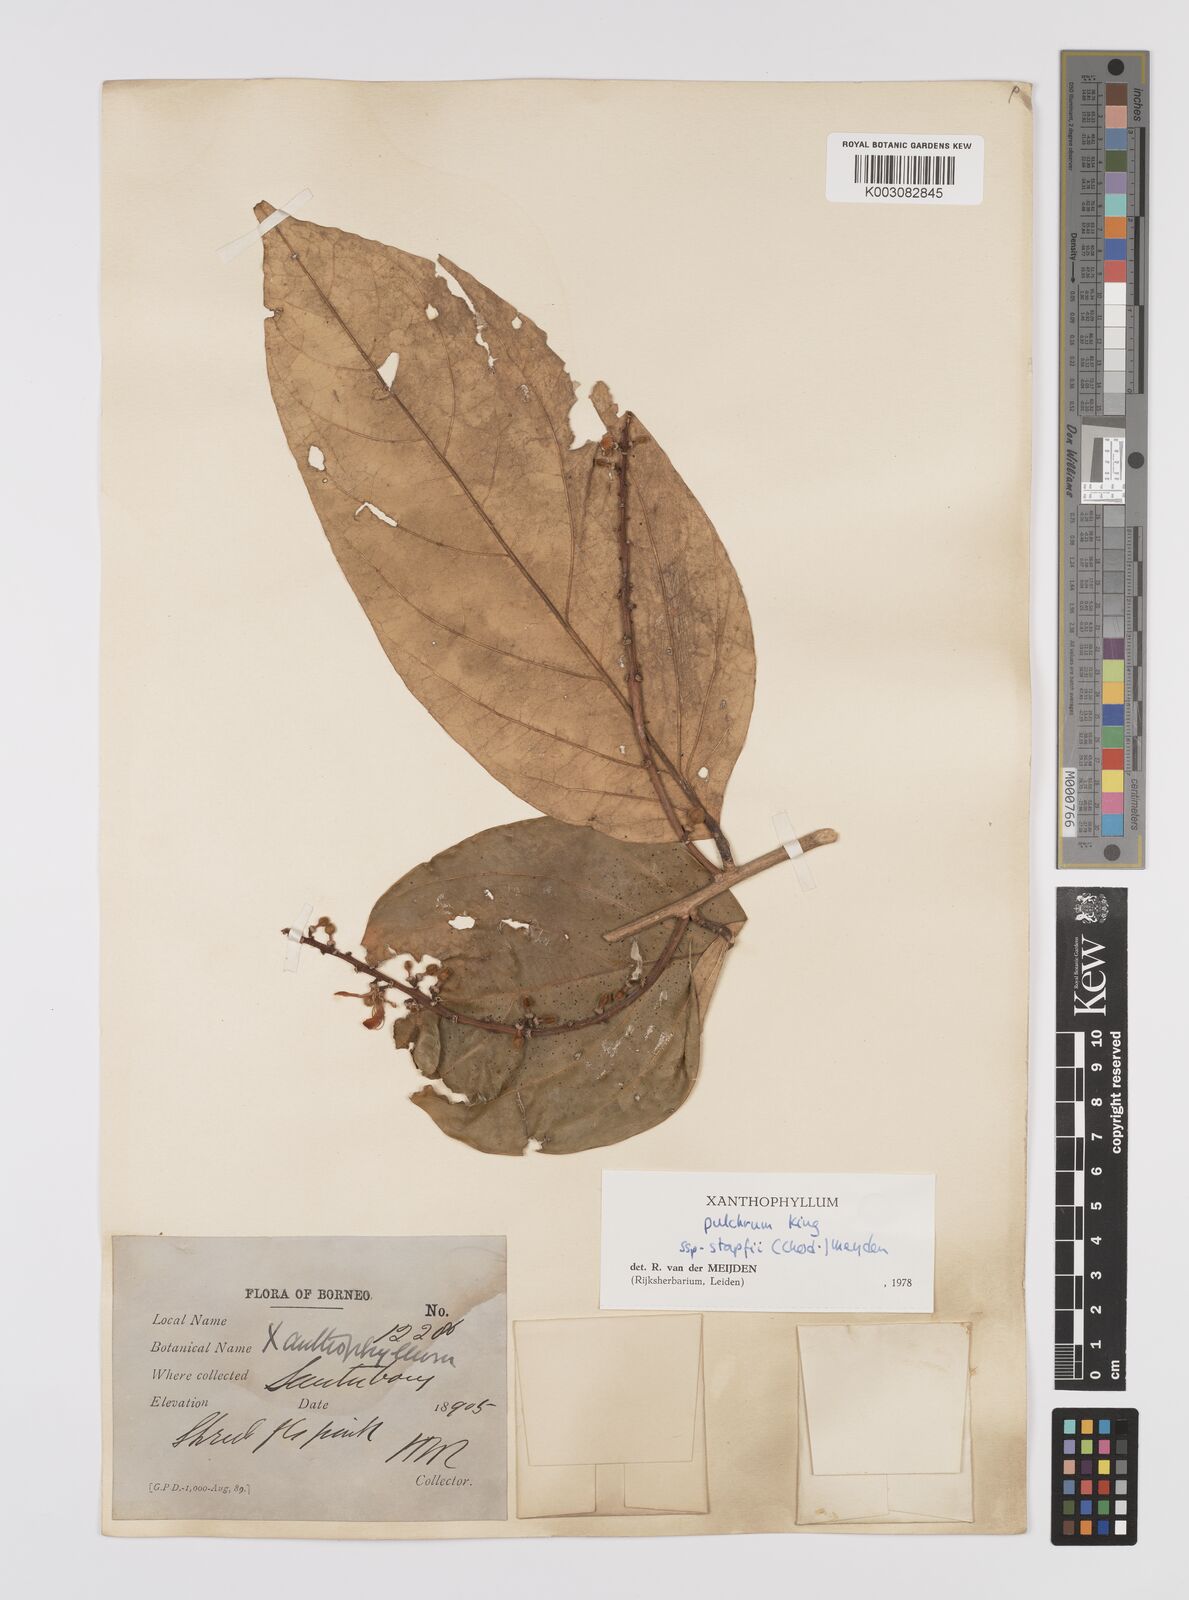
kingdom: Plantae
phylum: Tracheophyta
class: Magnoliopsida
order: Fabales
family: Polygalaceae
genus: Xanthophyllum
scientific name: Xanthophyllum pulchrum
